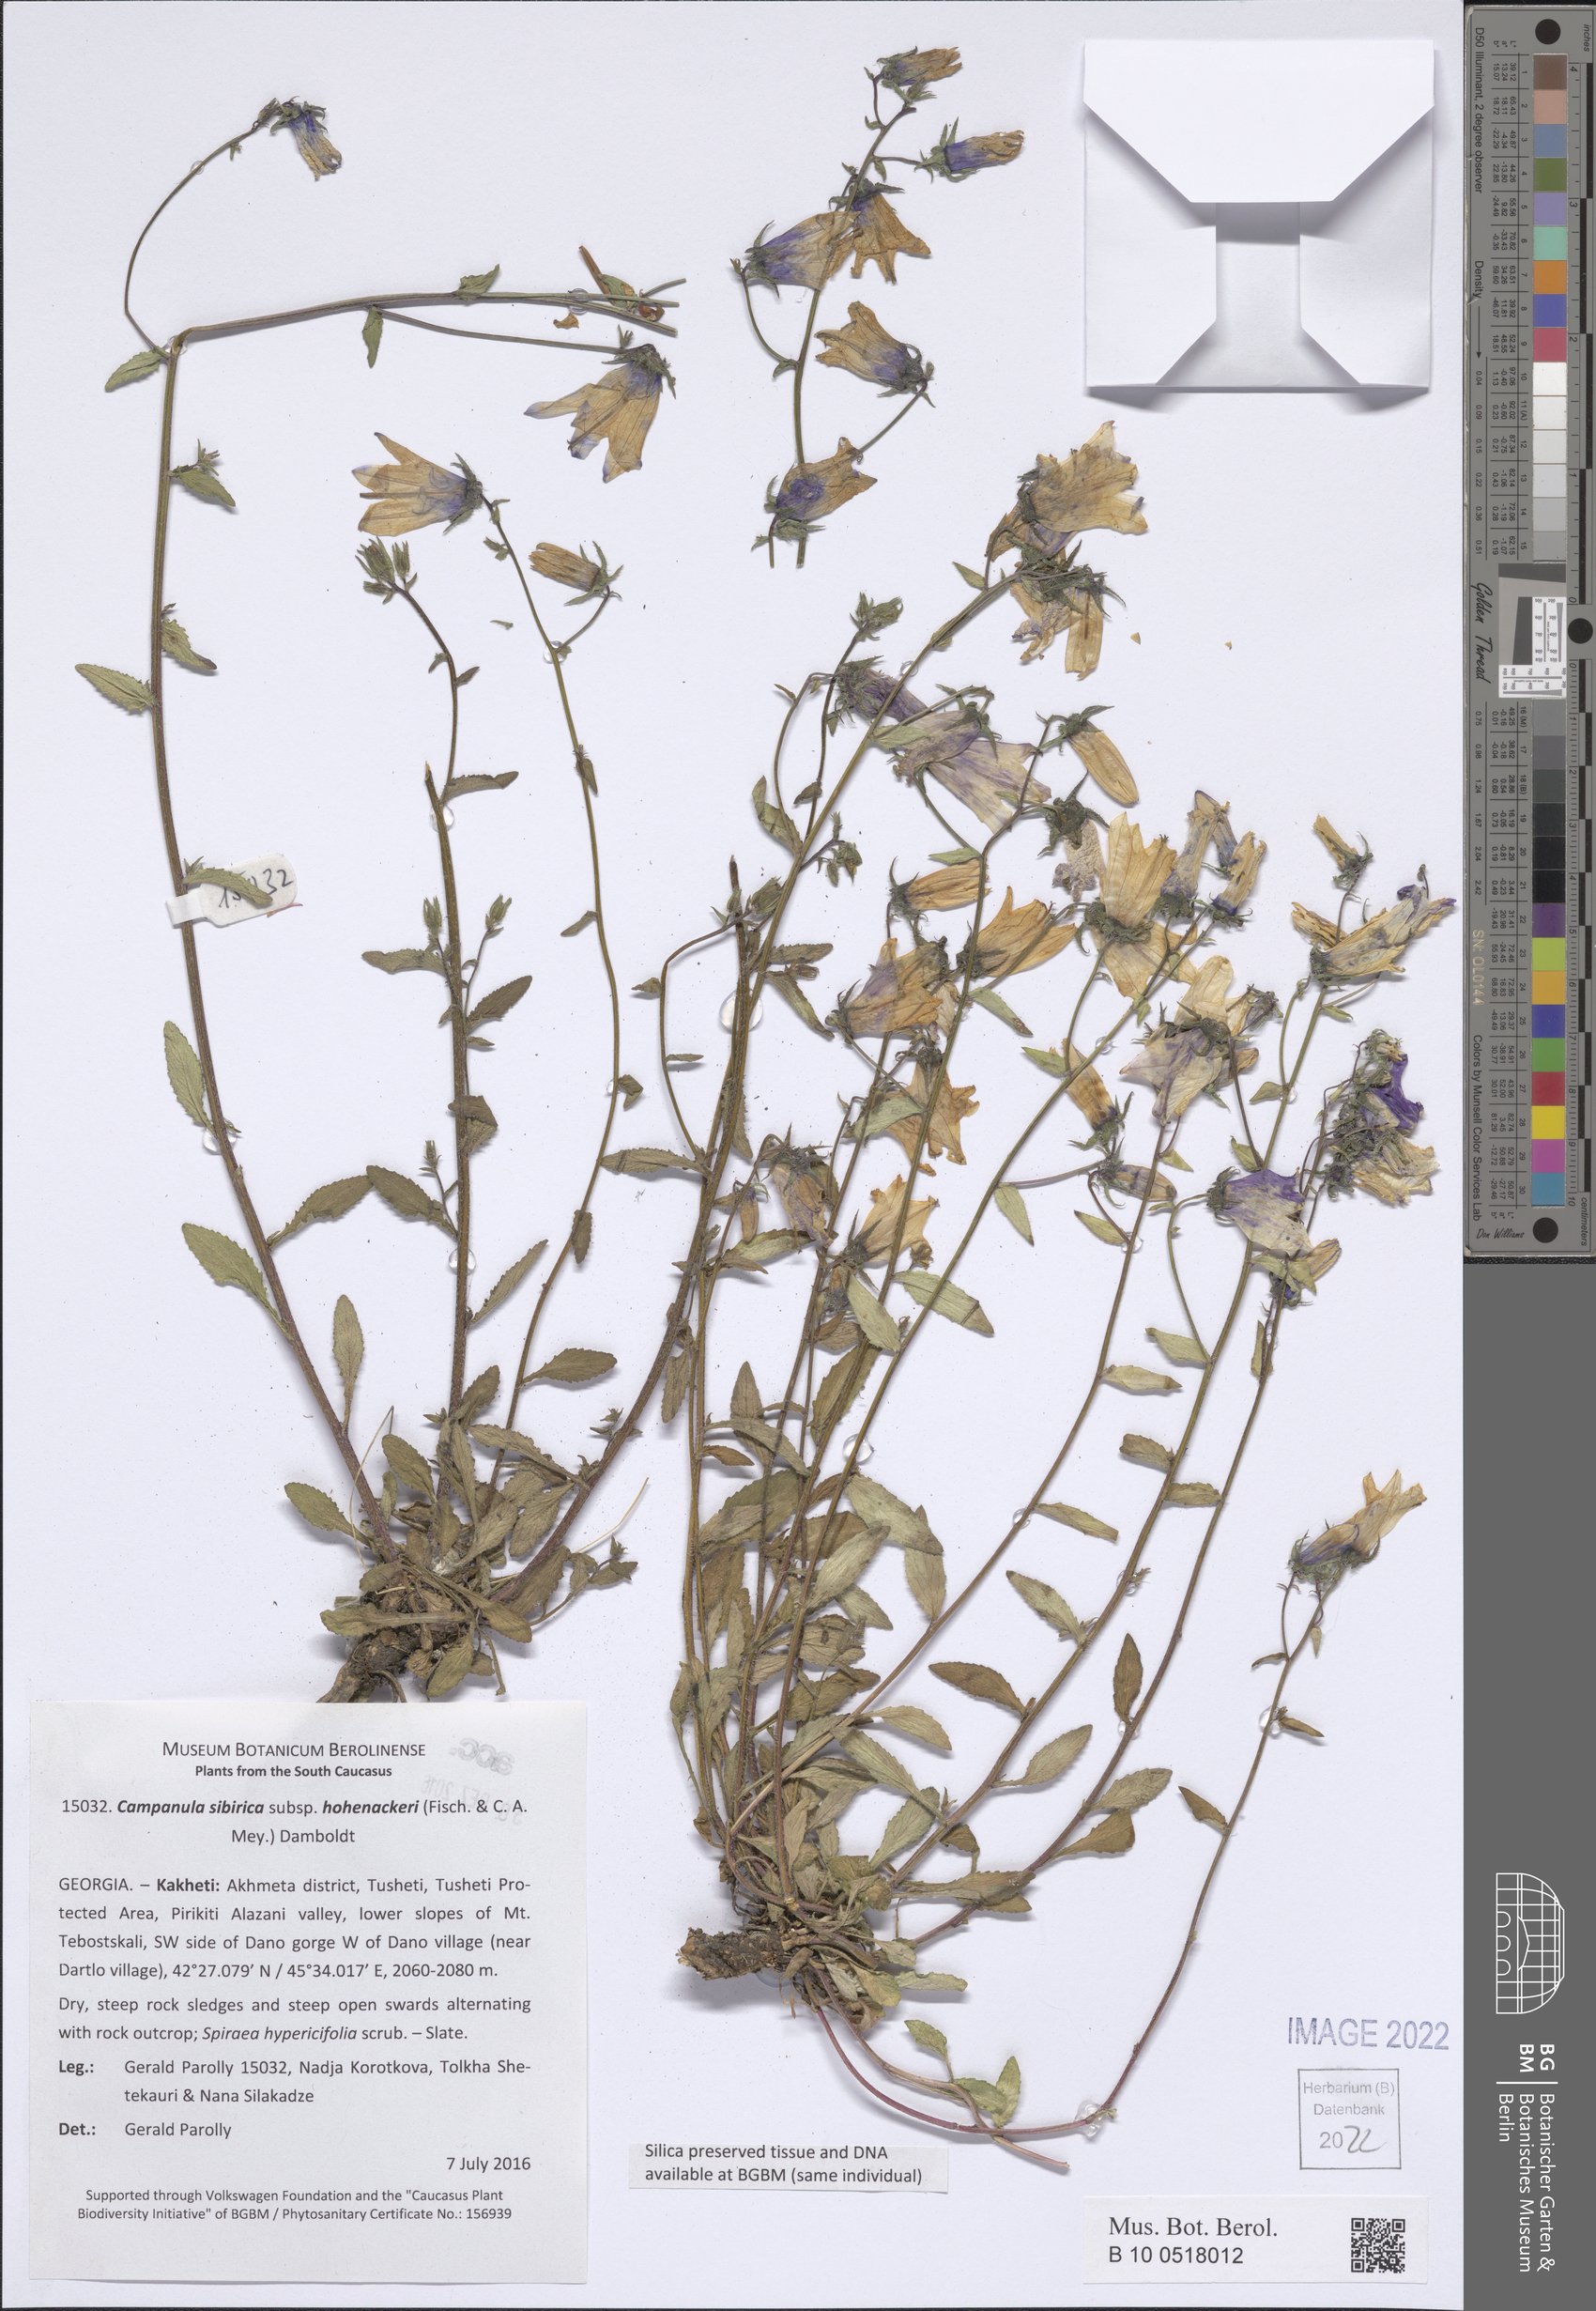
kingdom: Plantae
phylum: Tracheophyta
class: Magnoliopsida
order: Asterales
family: Campanulaceae
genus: Campanula
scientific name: Campanula sibirica
